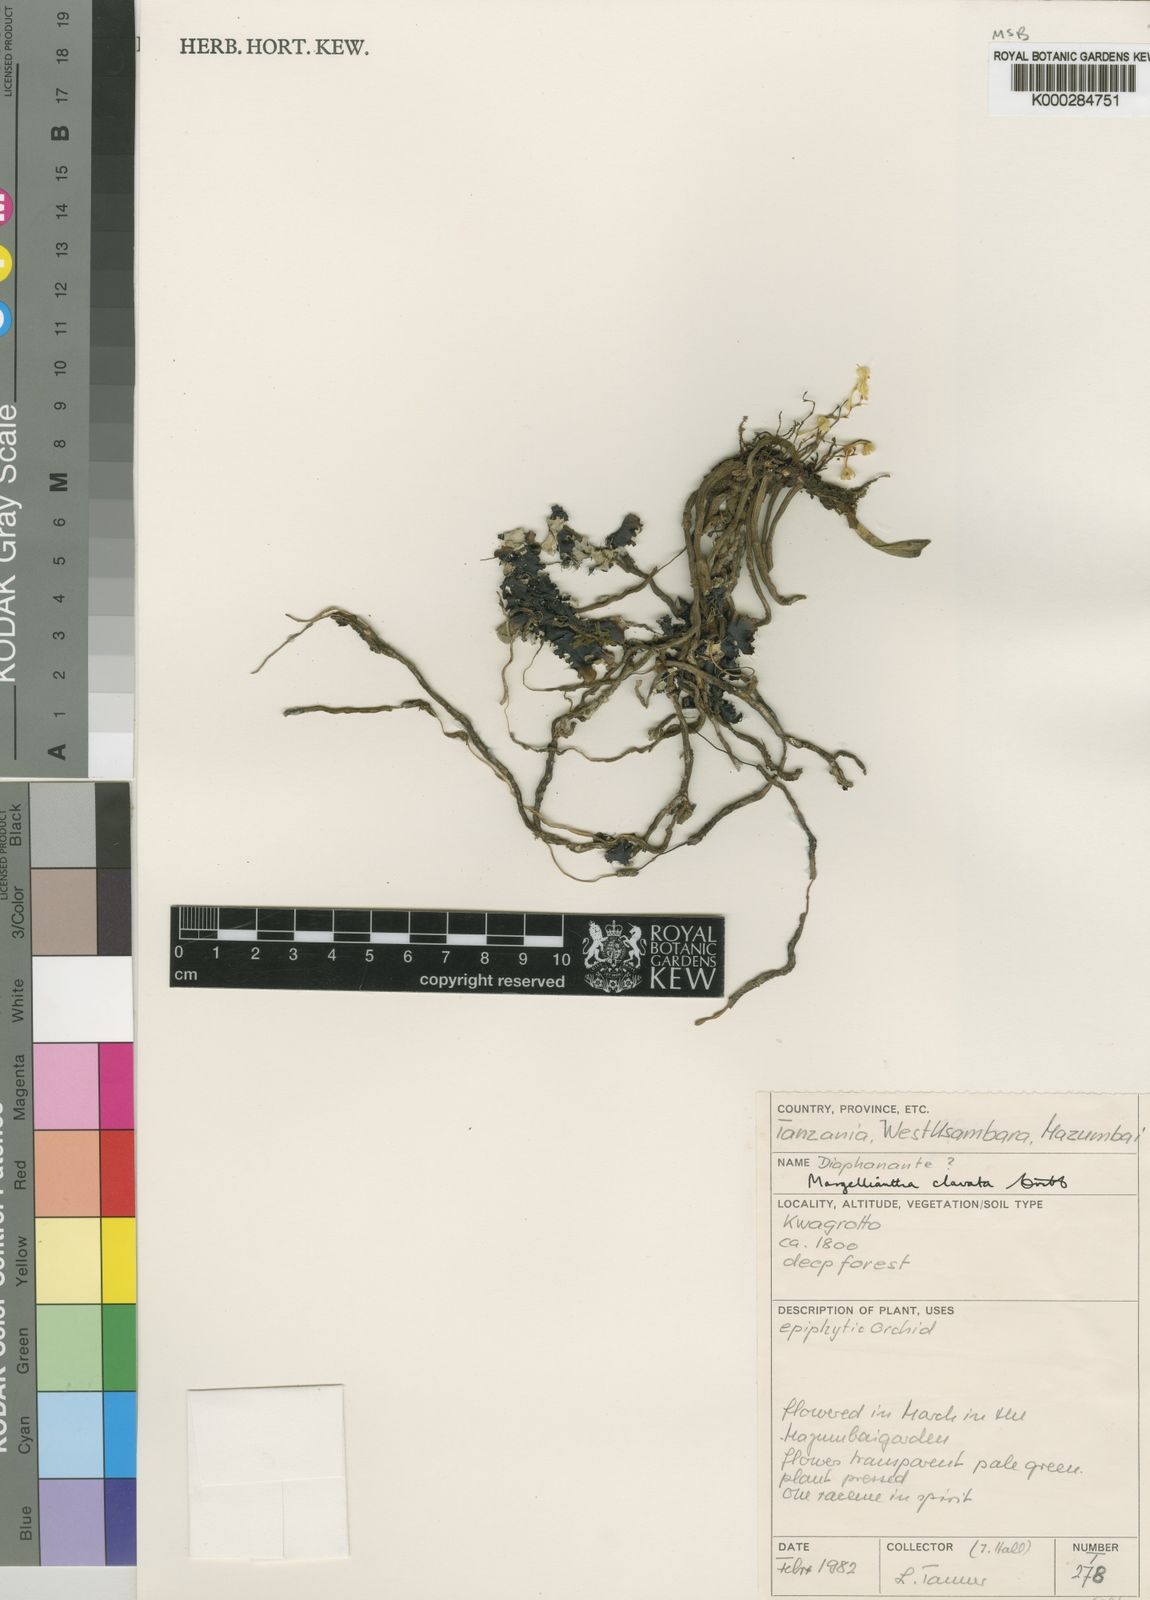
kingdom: Plantae
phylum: Tracheophyta
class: Liliopsida
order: Asparagales
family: Orchidaceae
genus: Rhipidoglossum
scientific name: Rhipidoglossum clavatum
